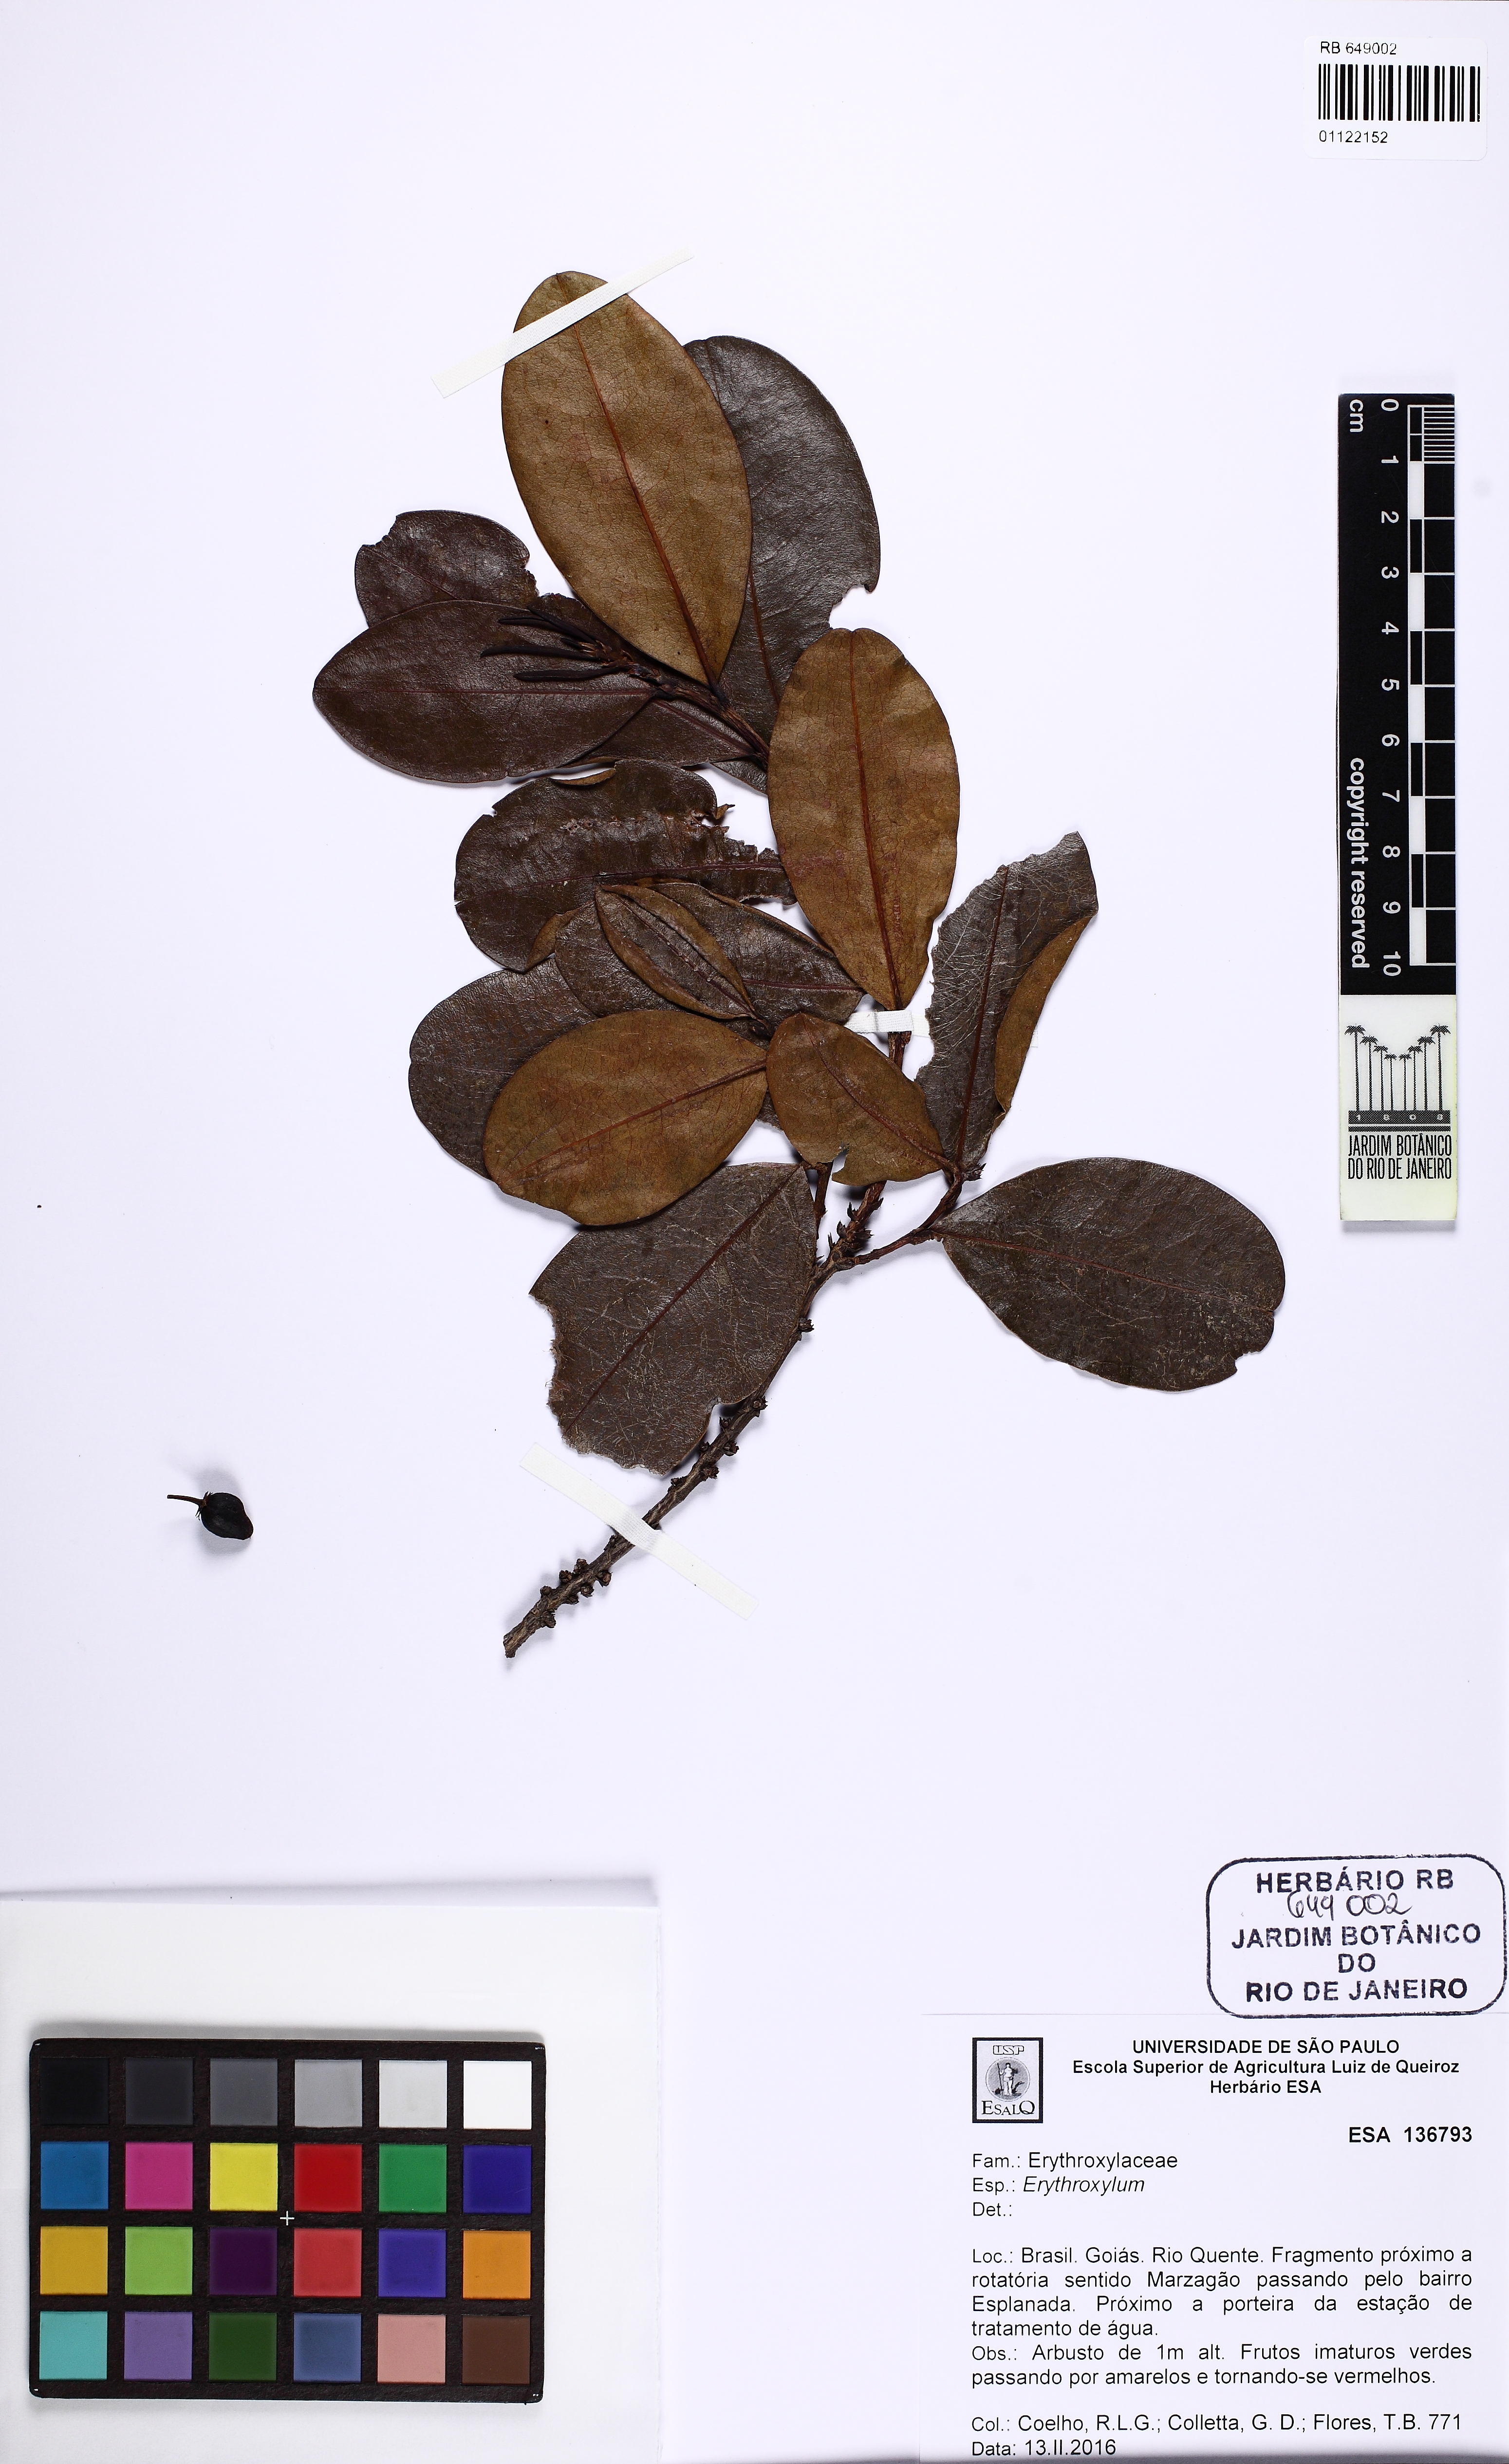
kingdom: Plantae
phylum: Tracheophyta
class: Magnoliopsida
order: Malpighiales
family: Erythroxylaceae
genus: Erythroxylum
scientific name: Erythroxylum
